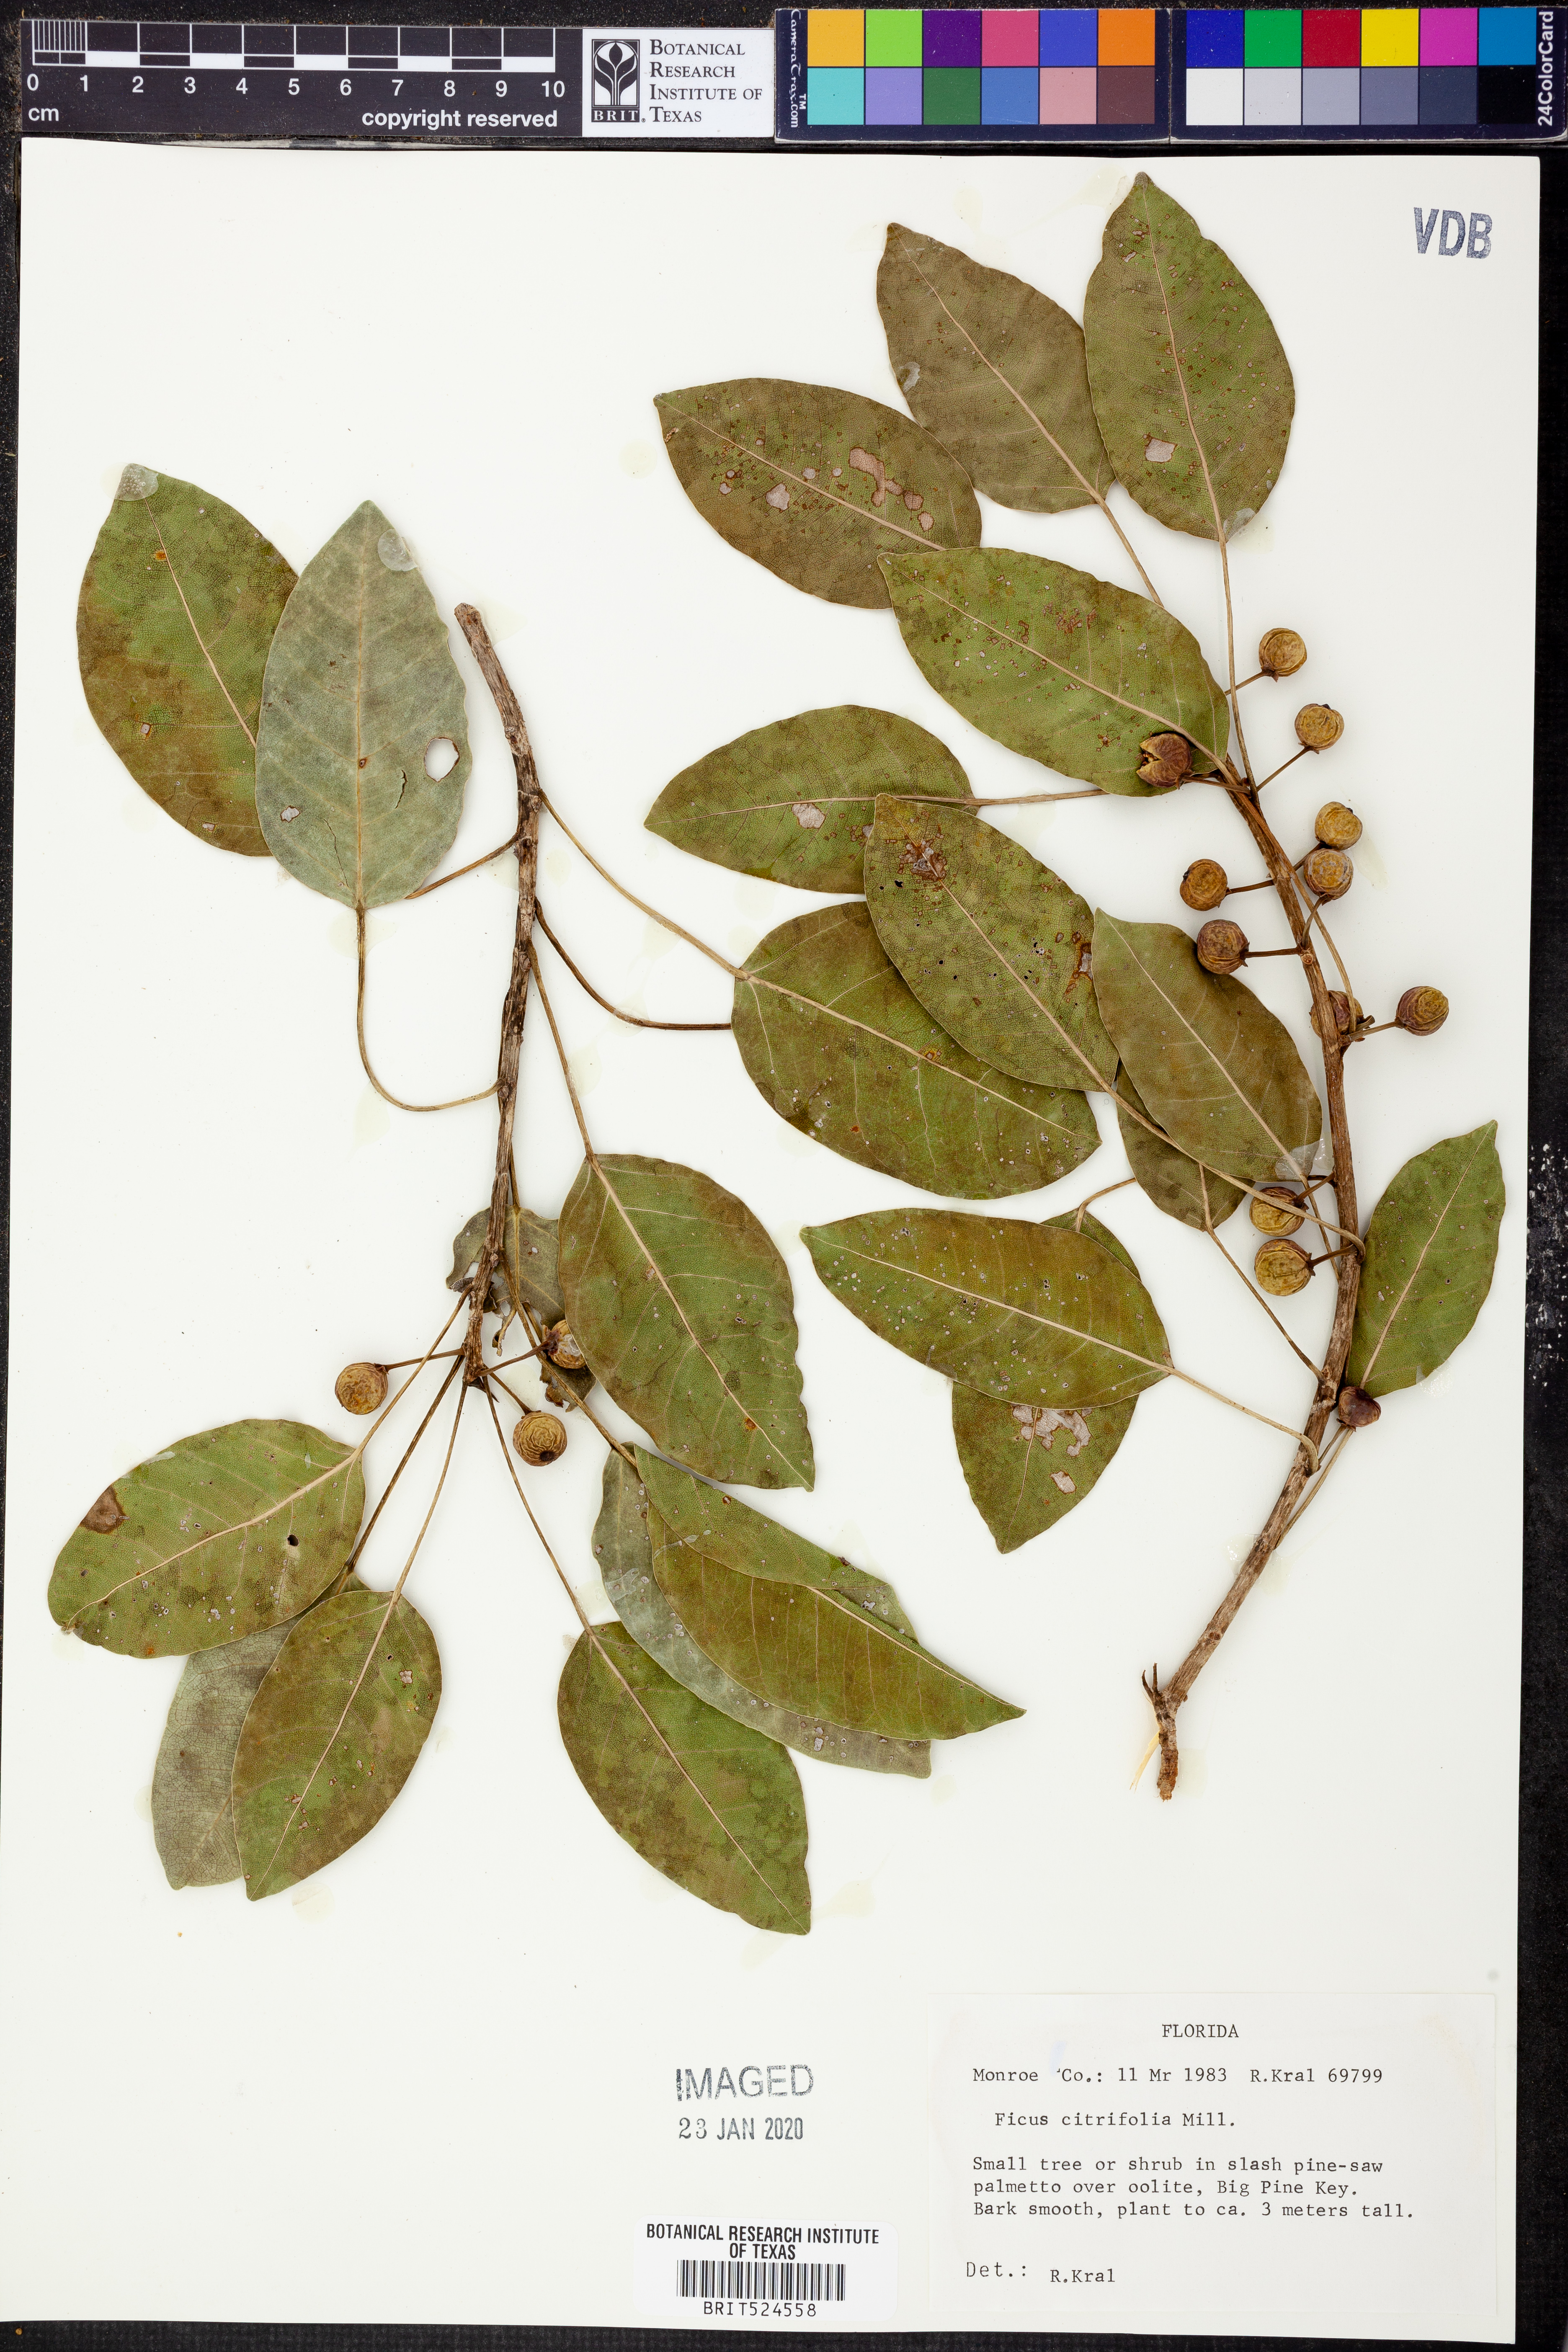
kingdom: Plantae
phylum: Tracheophyta
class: Magnoliopsida
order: Rosales
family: Moraceae
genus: Ficus
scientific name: Ficus citrifolia
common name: Strangler fig
